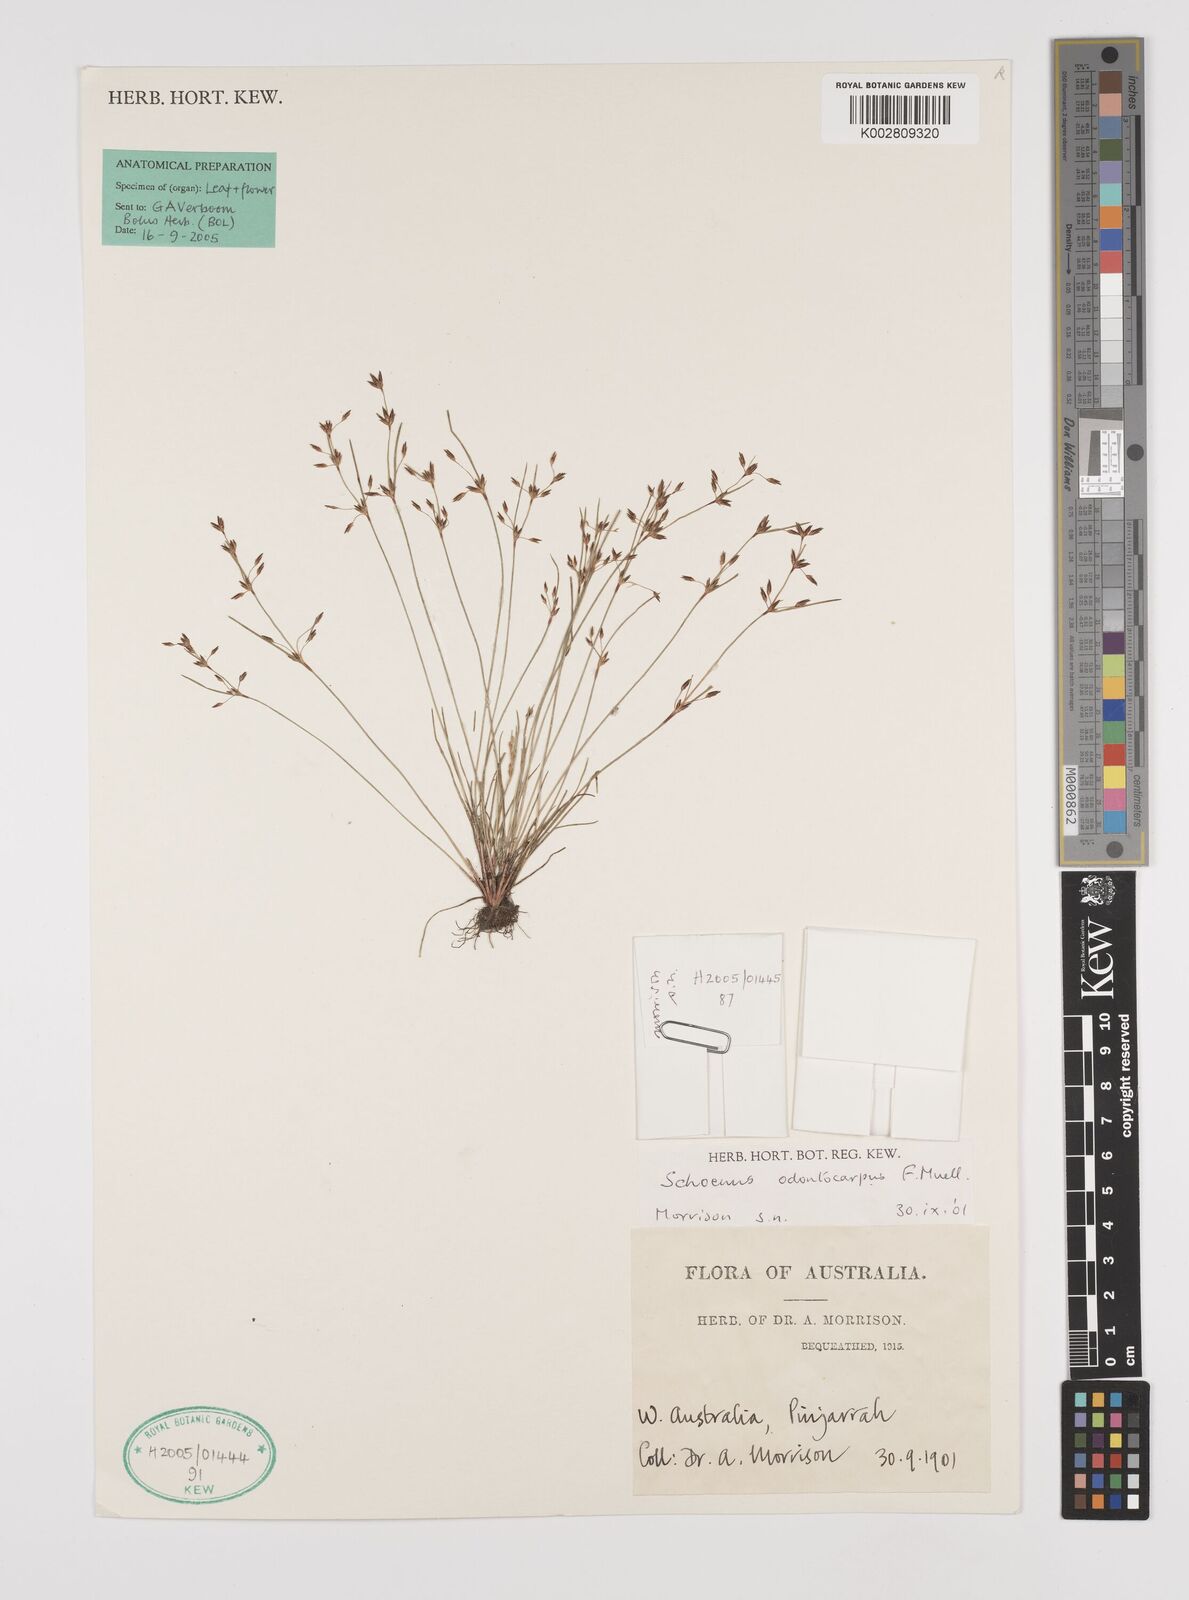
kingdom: Plantae
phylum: Tracheophyta
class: Liliopsida
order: Poales
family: Cyperaceae
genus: Schoenus
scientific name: Schoenus odontocarpus
